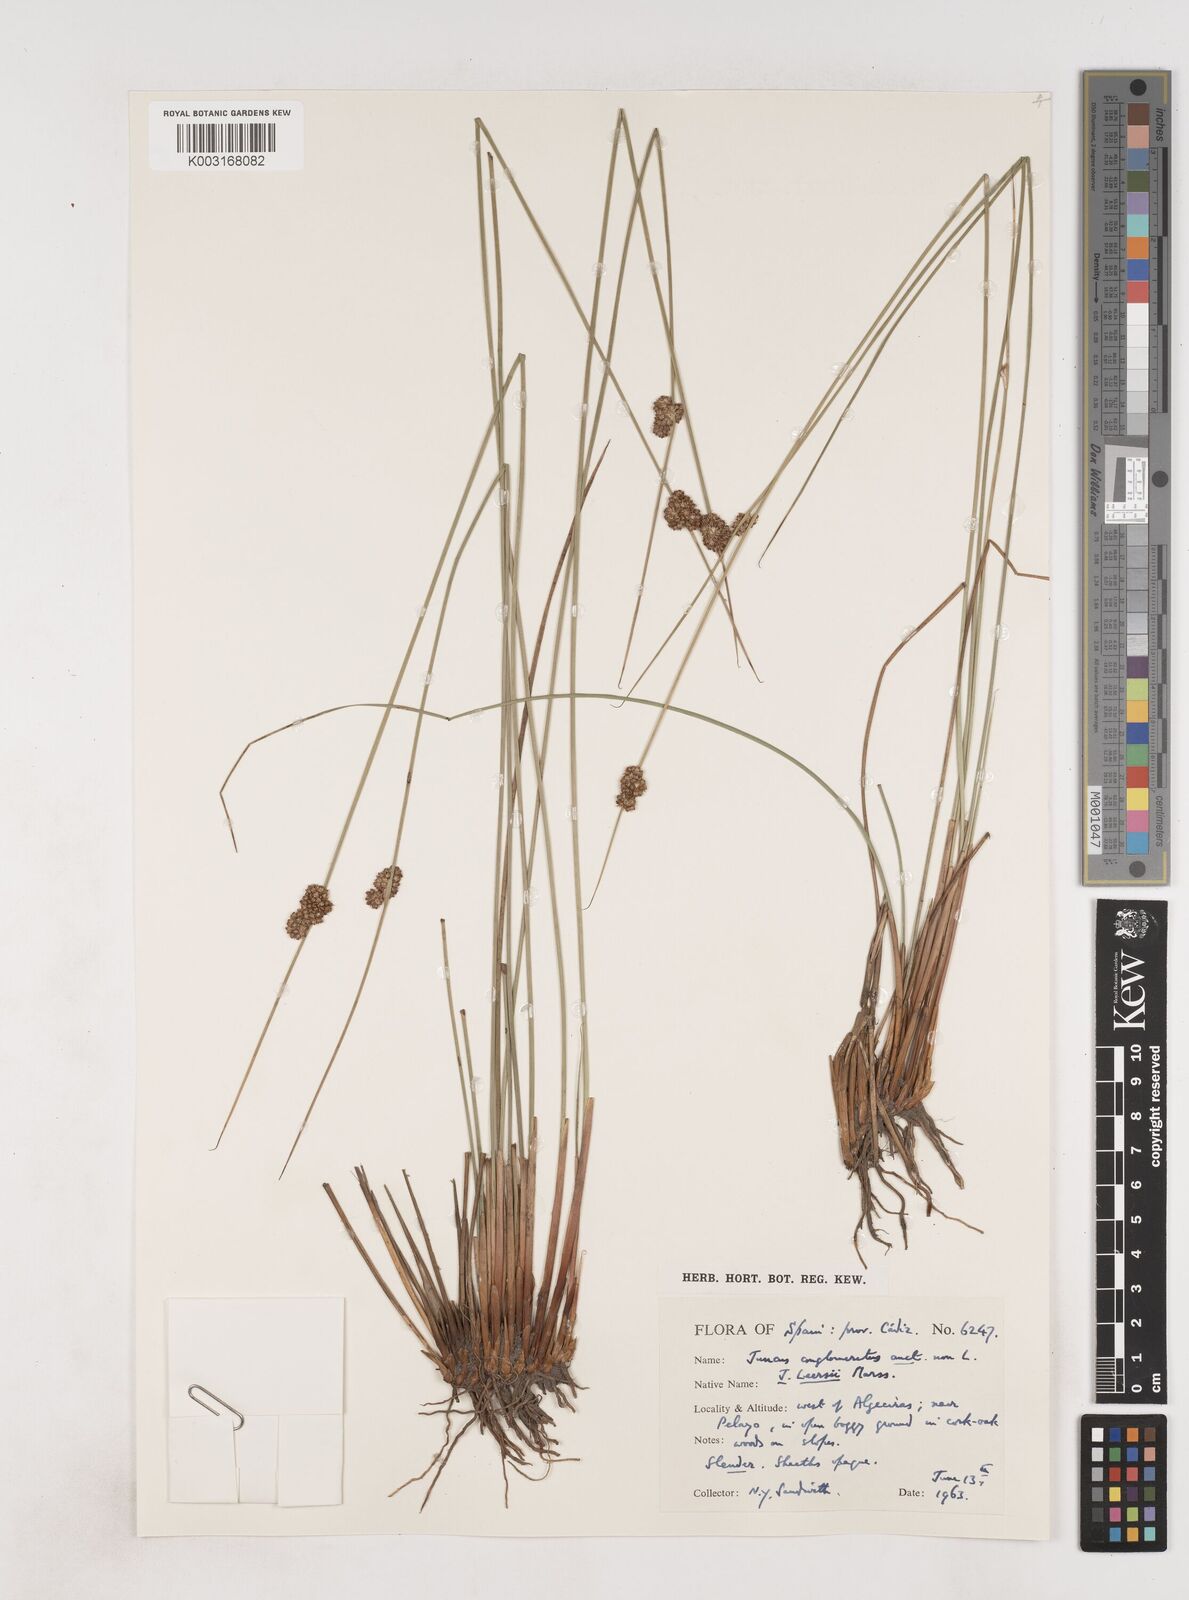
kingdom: Plantae
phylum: Tracheophyta
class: Liliopsida
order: Poales
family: Juncaceae
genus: Juncus
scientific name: Juncus conglomeratus
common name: Compact rush
